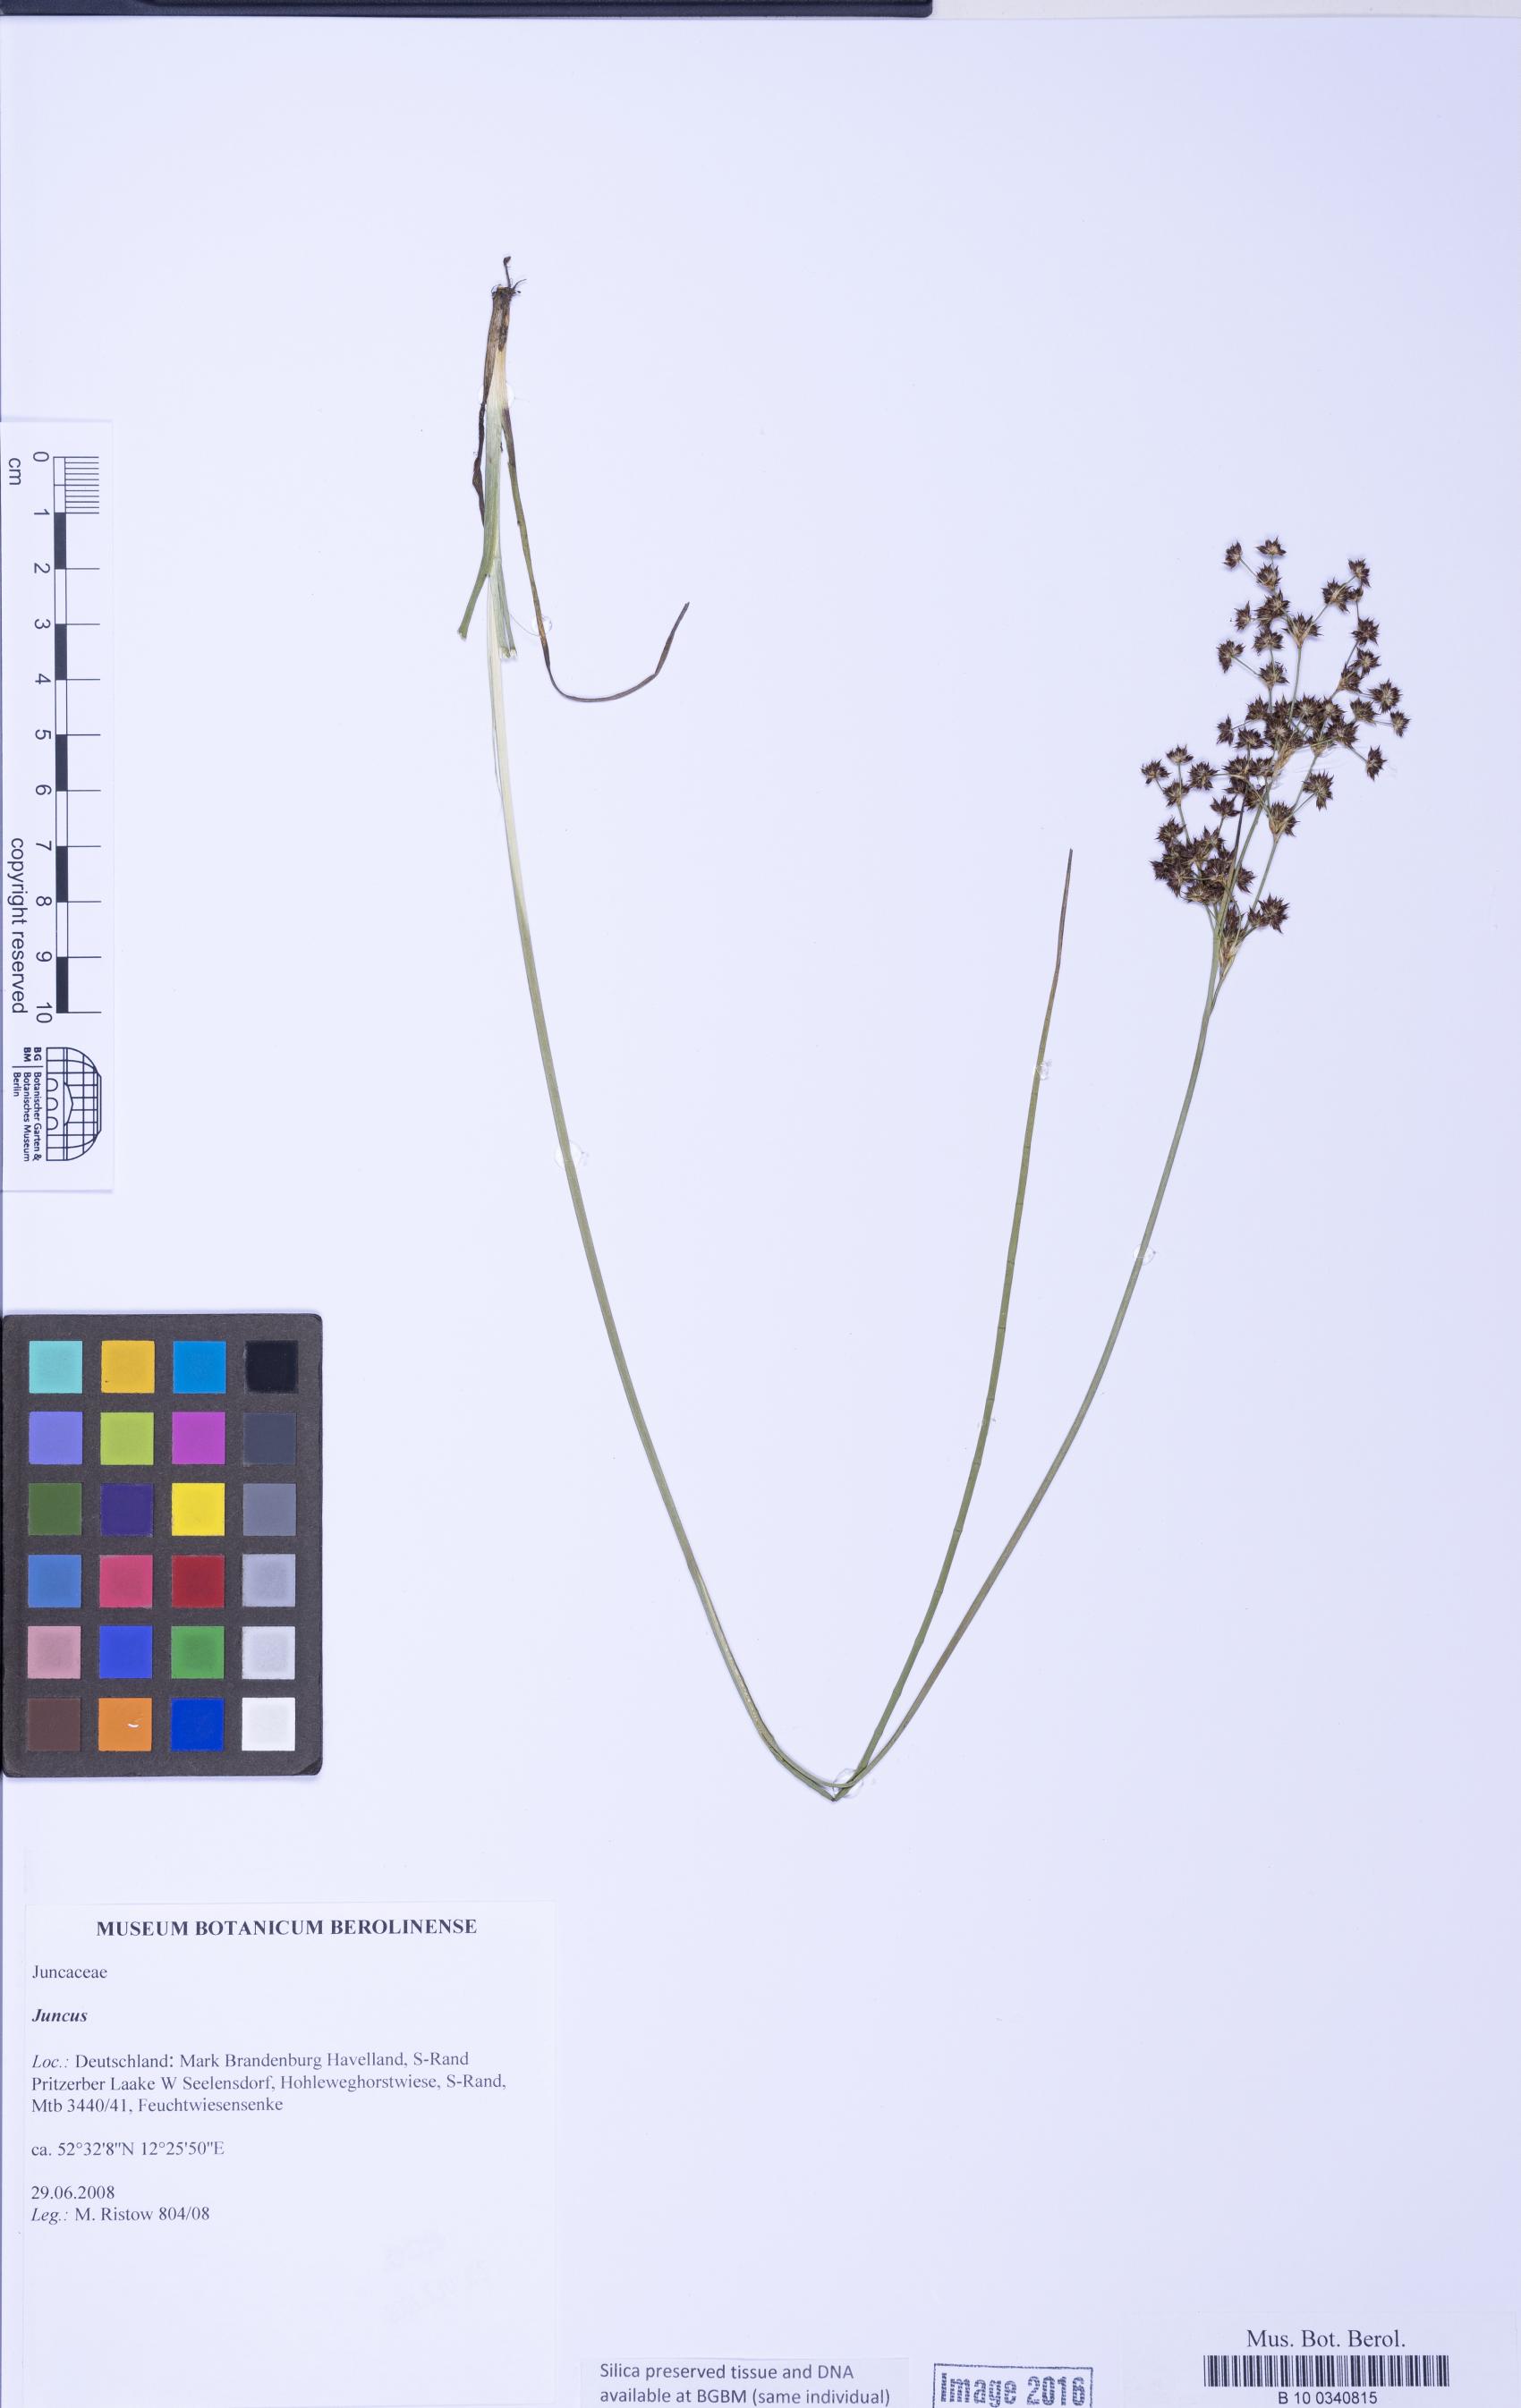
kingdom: Plantae
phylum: Tracheophyta
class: Liliopsida
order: Poales
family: Juncaceae
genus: Juncus
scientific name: Juncus
